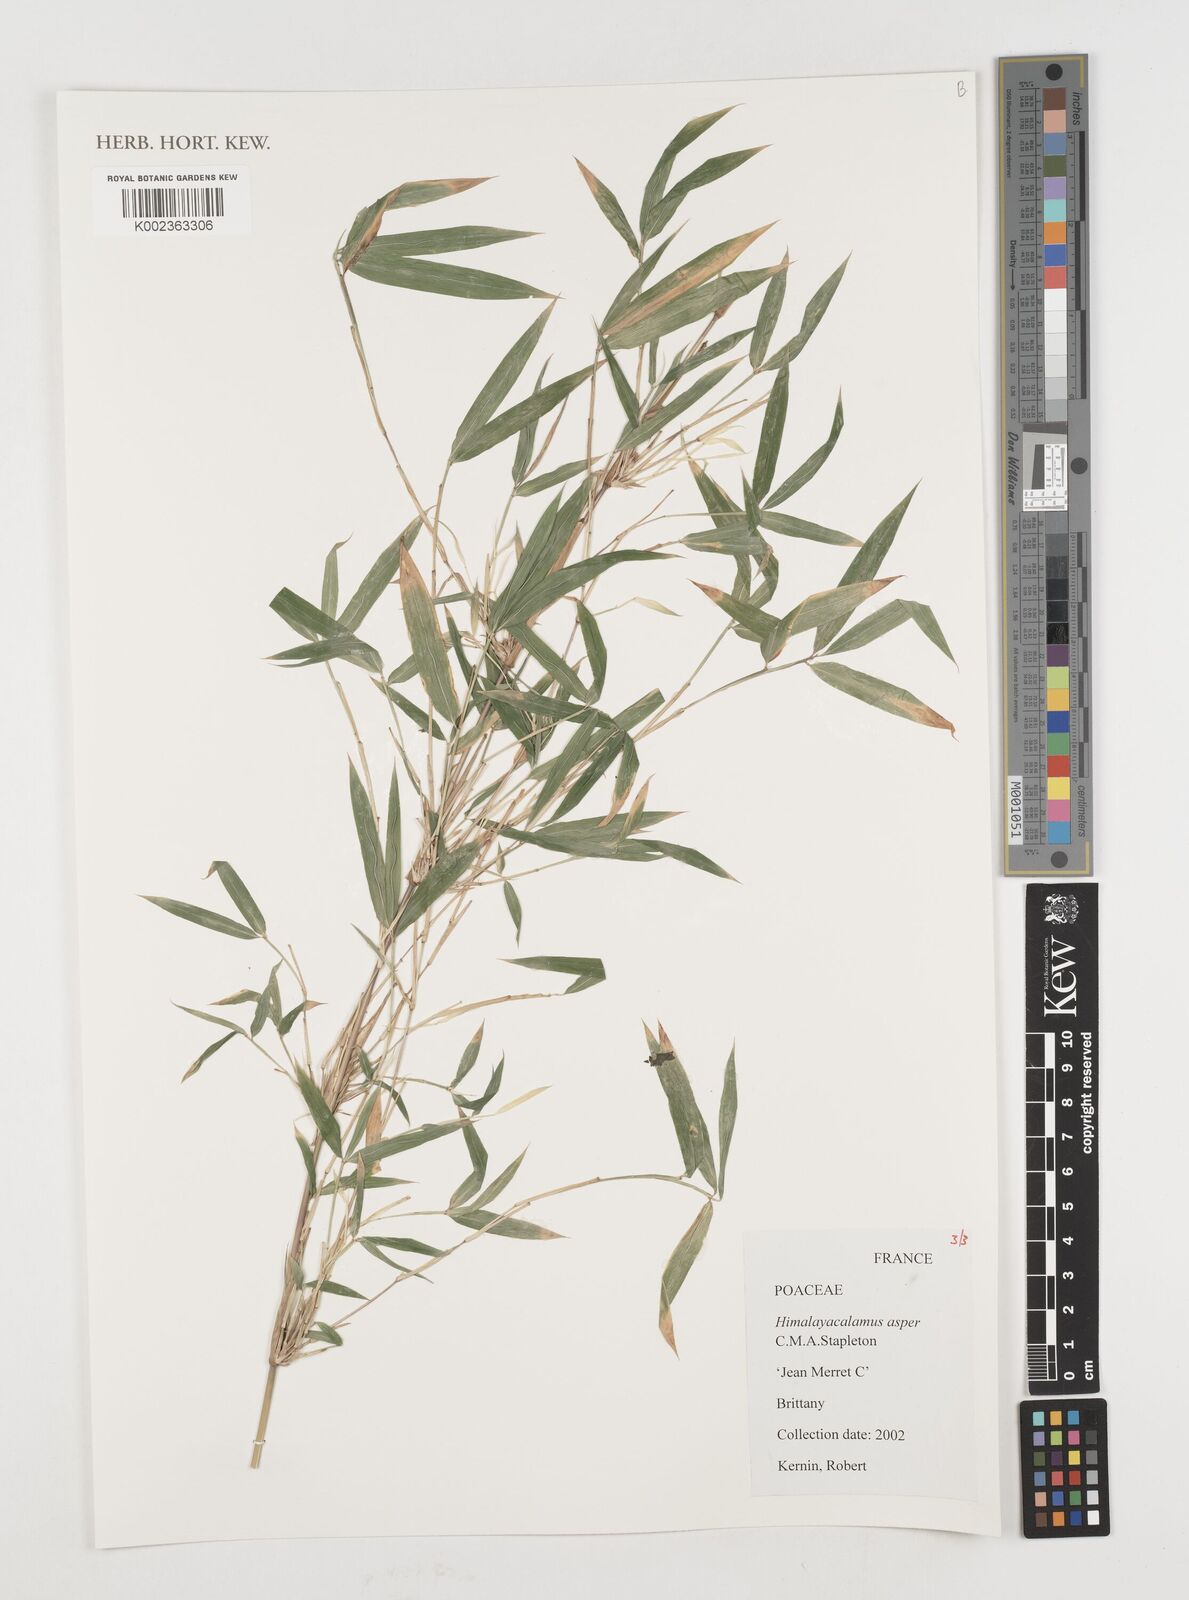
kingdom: Plantae
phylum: Tracheophyta
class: Liliopsida
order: Poales
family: Poaceae
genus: Himalayacalamus
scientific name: Himalayacalamus asper
